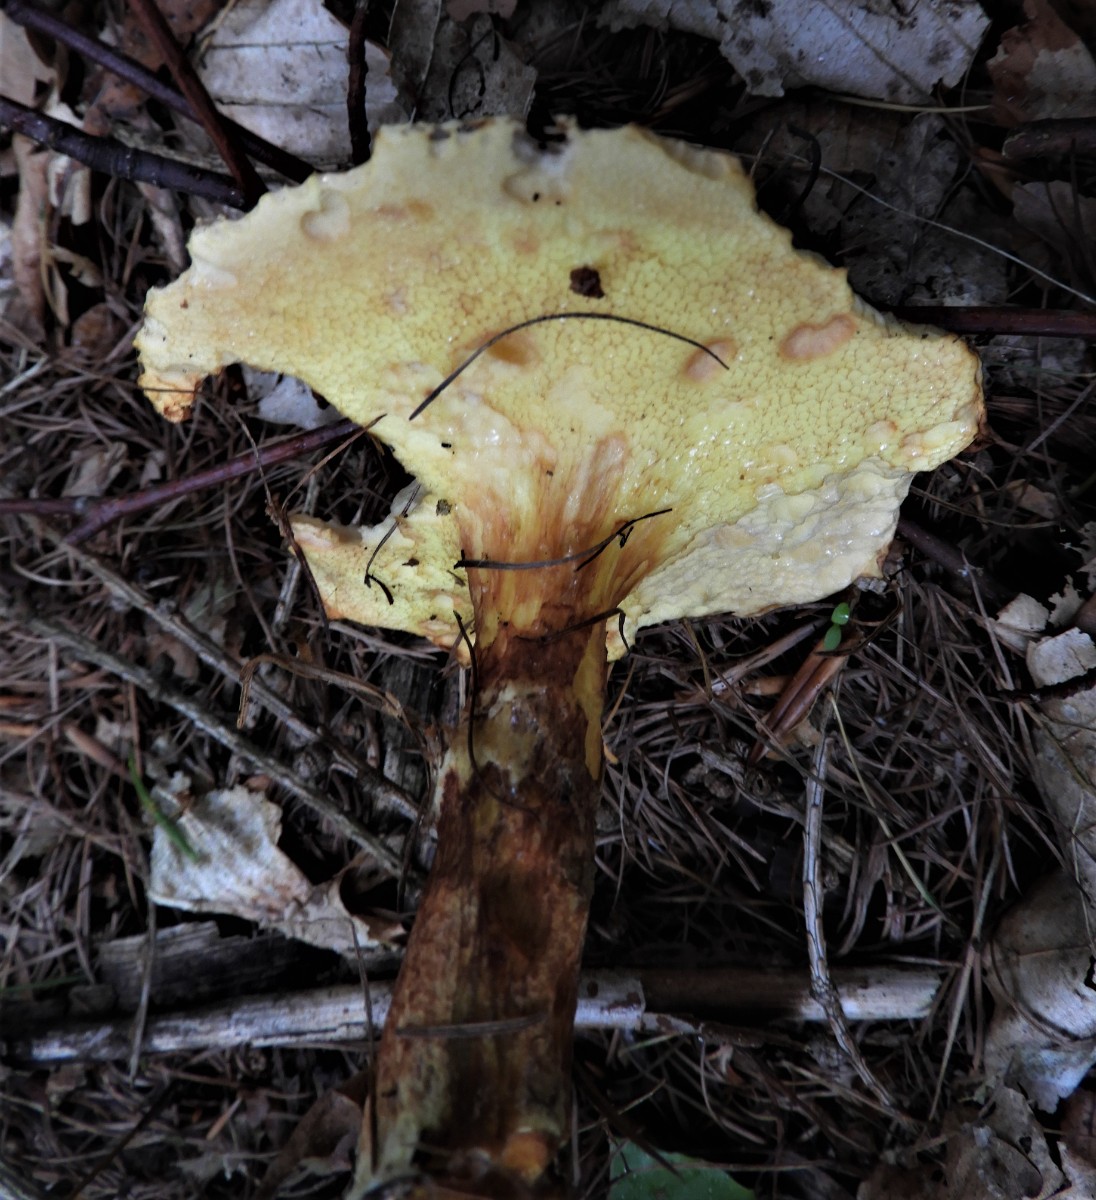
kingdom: Fungi
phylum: Basidiomycota
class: Agaricomycetes
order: Boletales
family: Suillaceae
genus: Suillus
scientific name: Suillus grevillei
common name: lærke-slimrørhat
